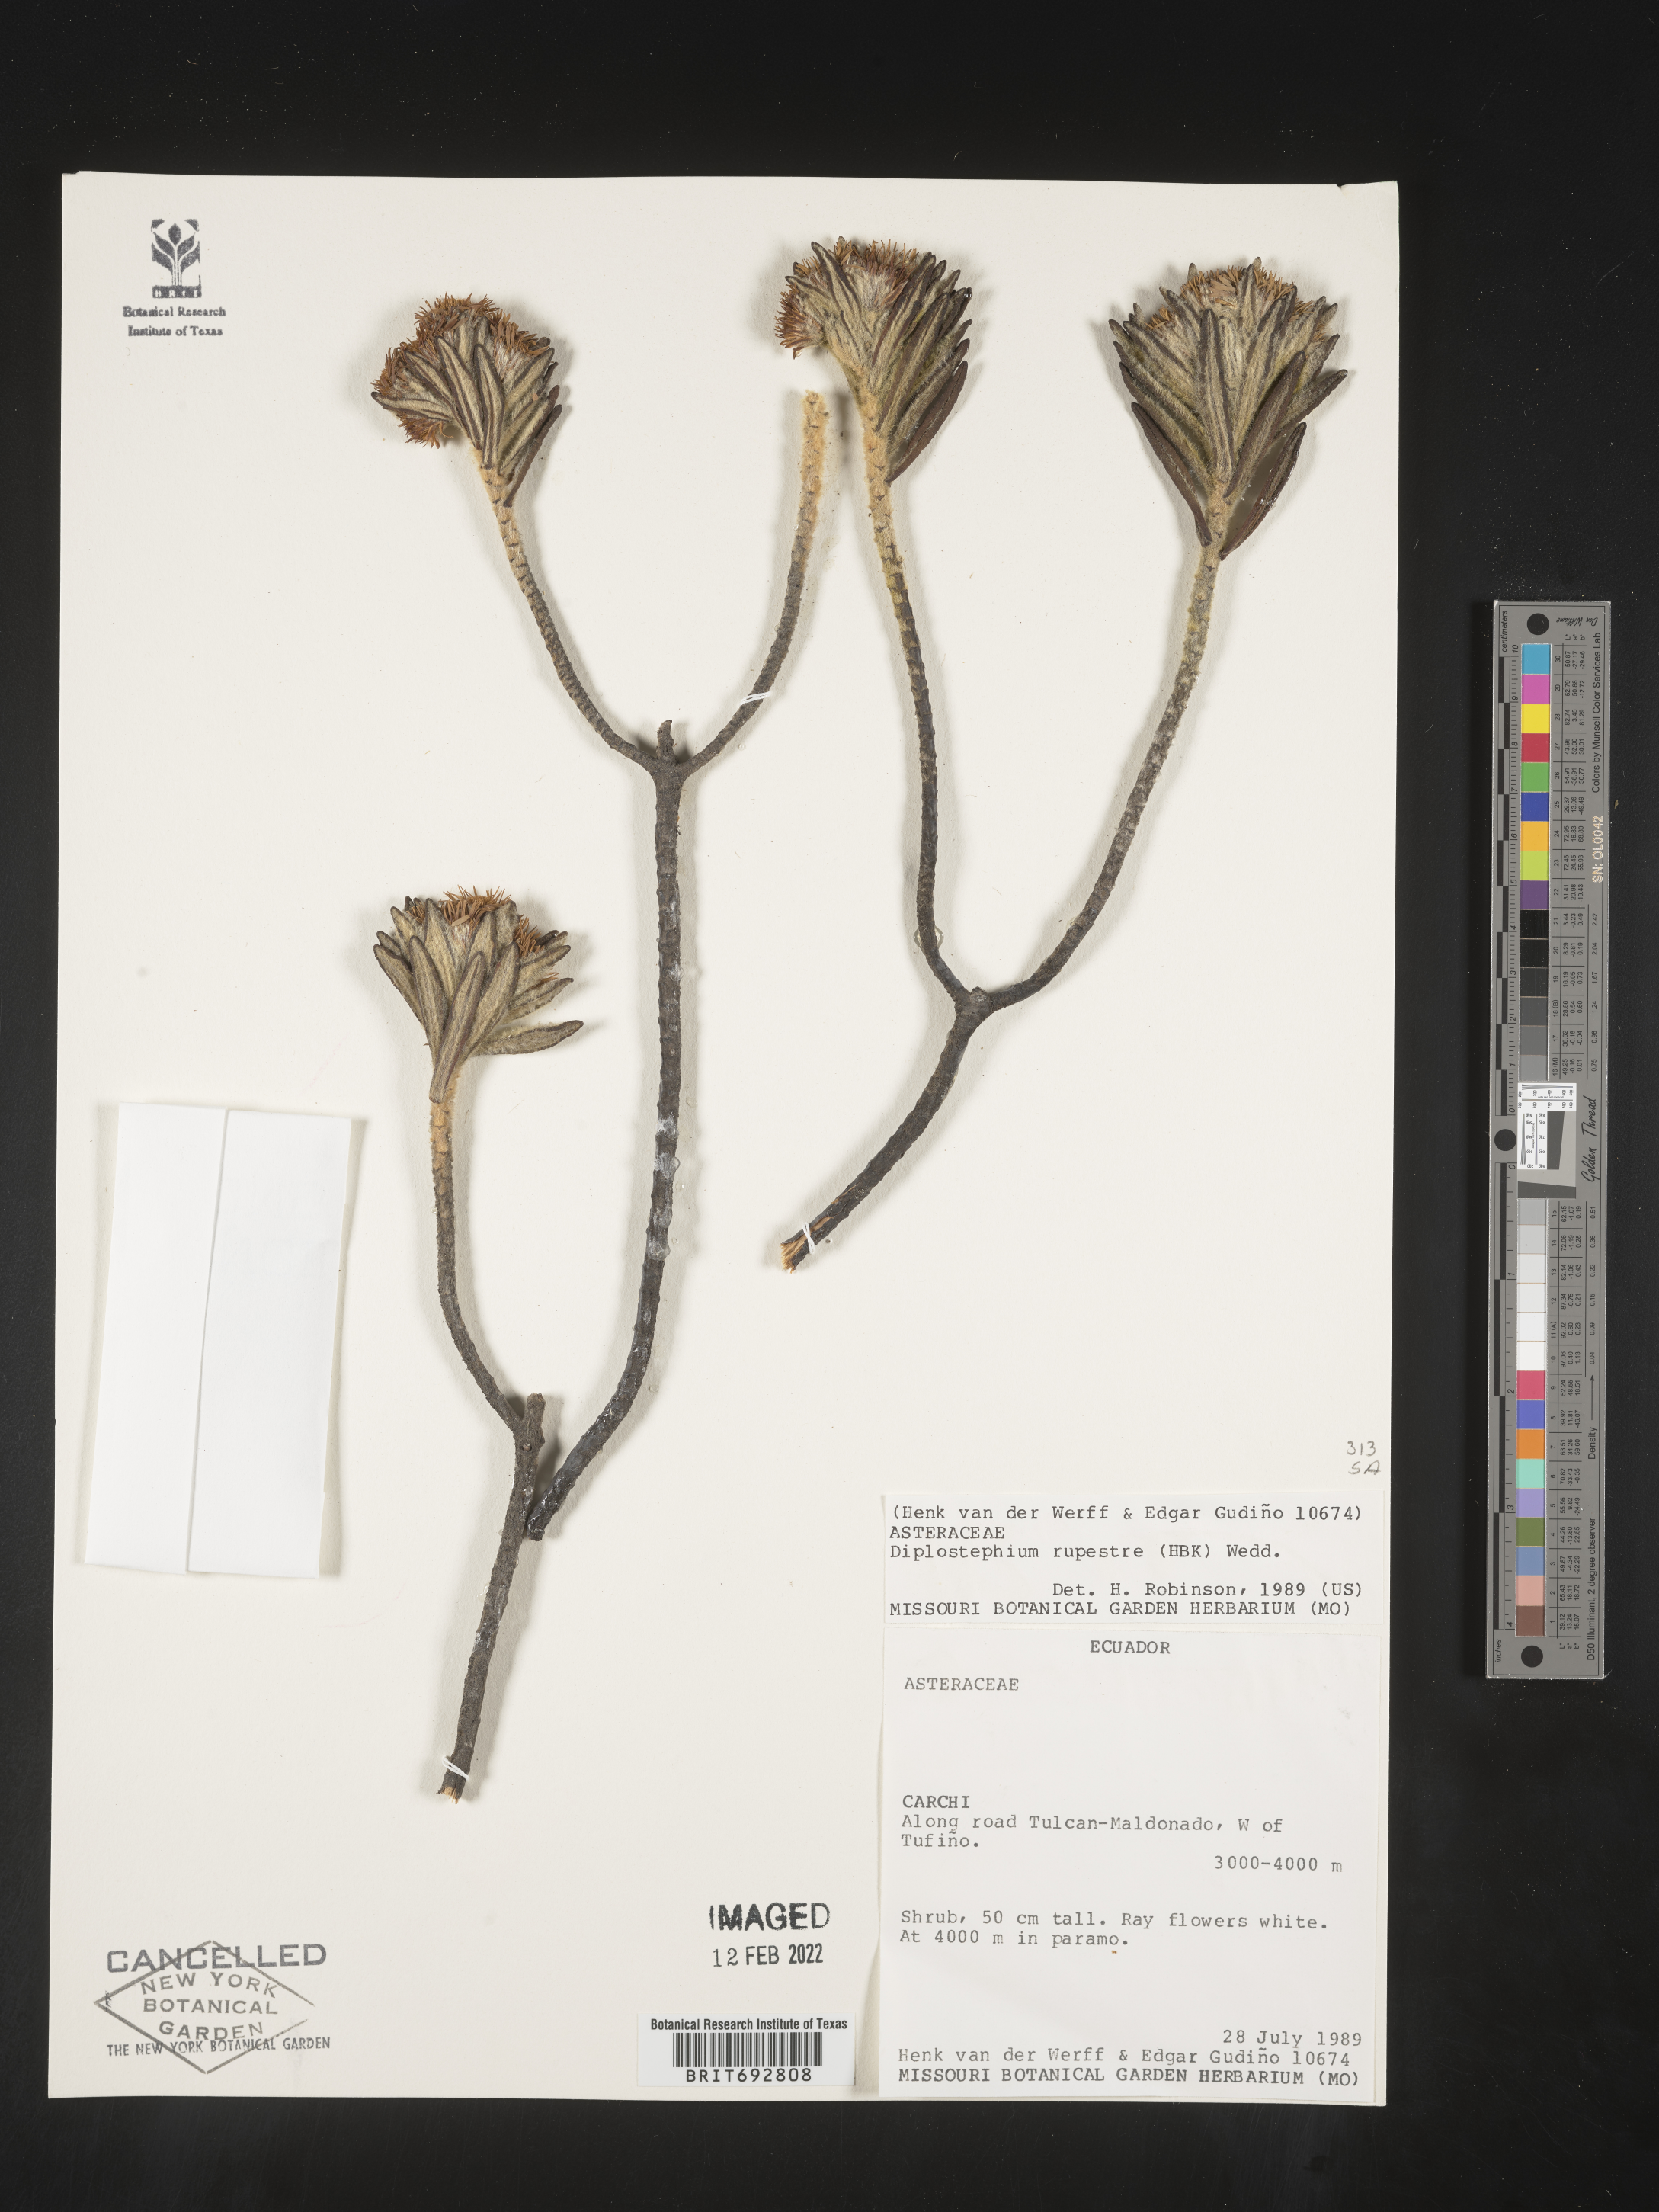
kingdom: Plantae
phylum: Tracheophyta
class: Magnoliopsida
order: Asterales
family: Asteraceae
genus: Diplostephium
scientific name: Diplostephium
